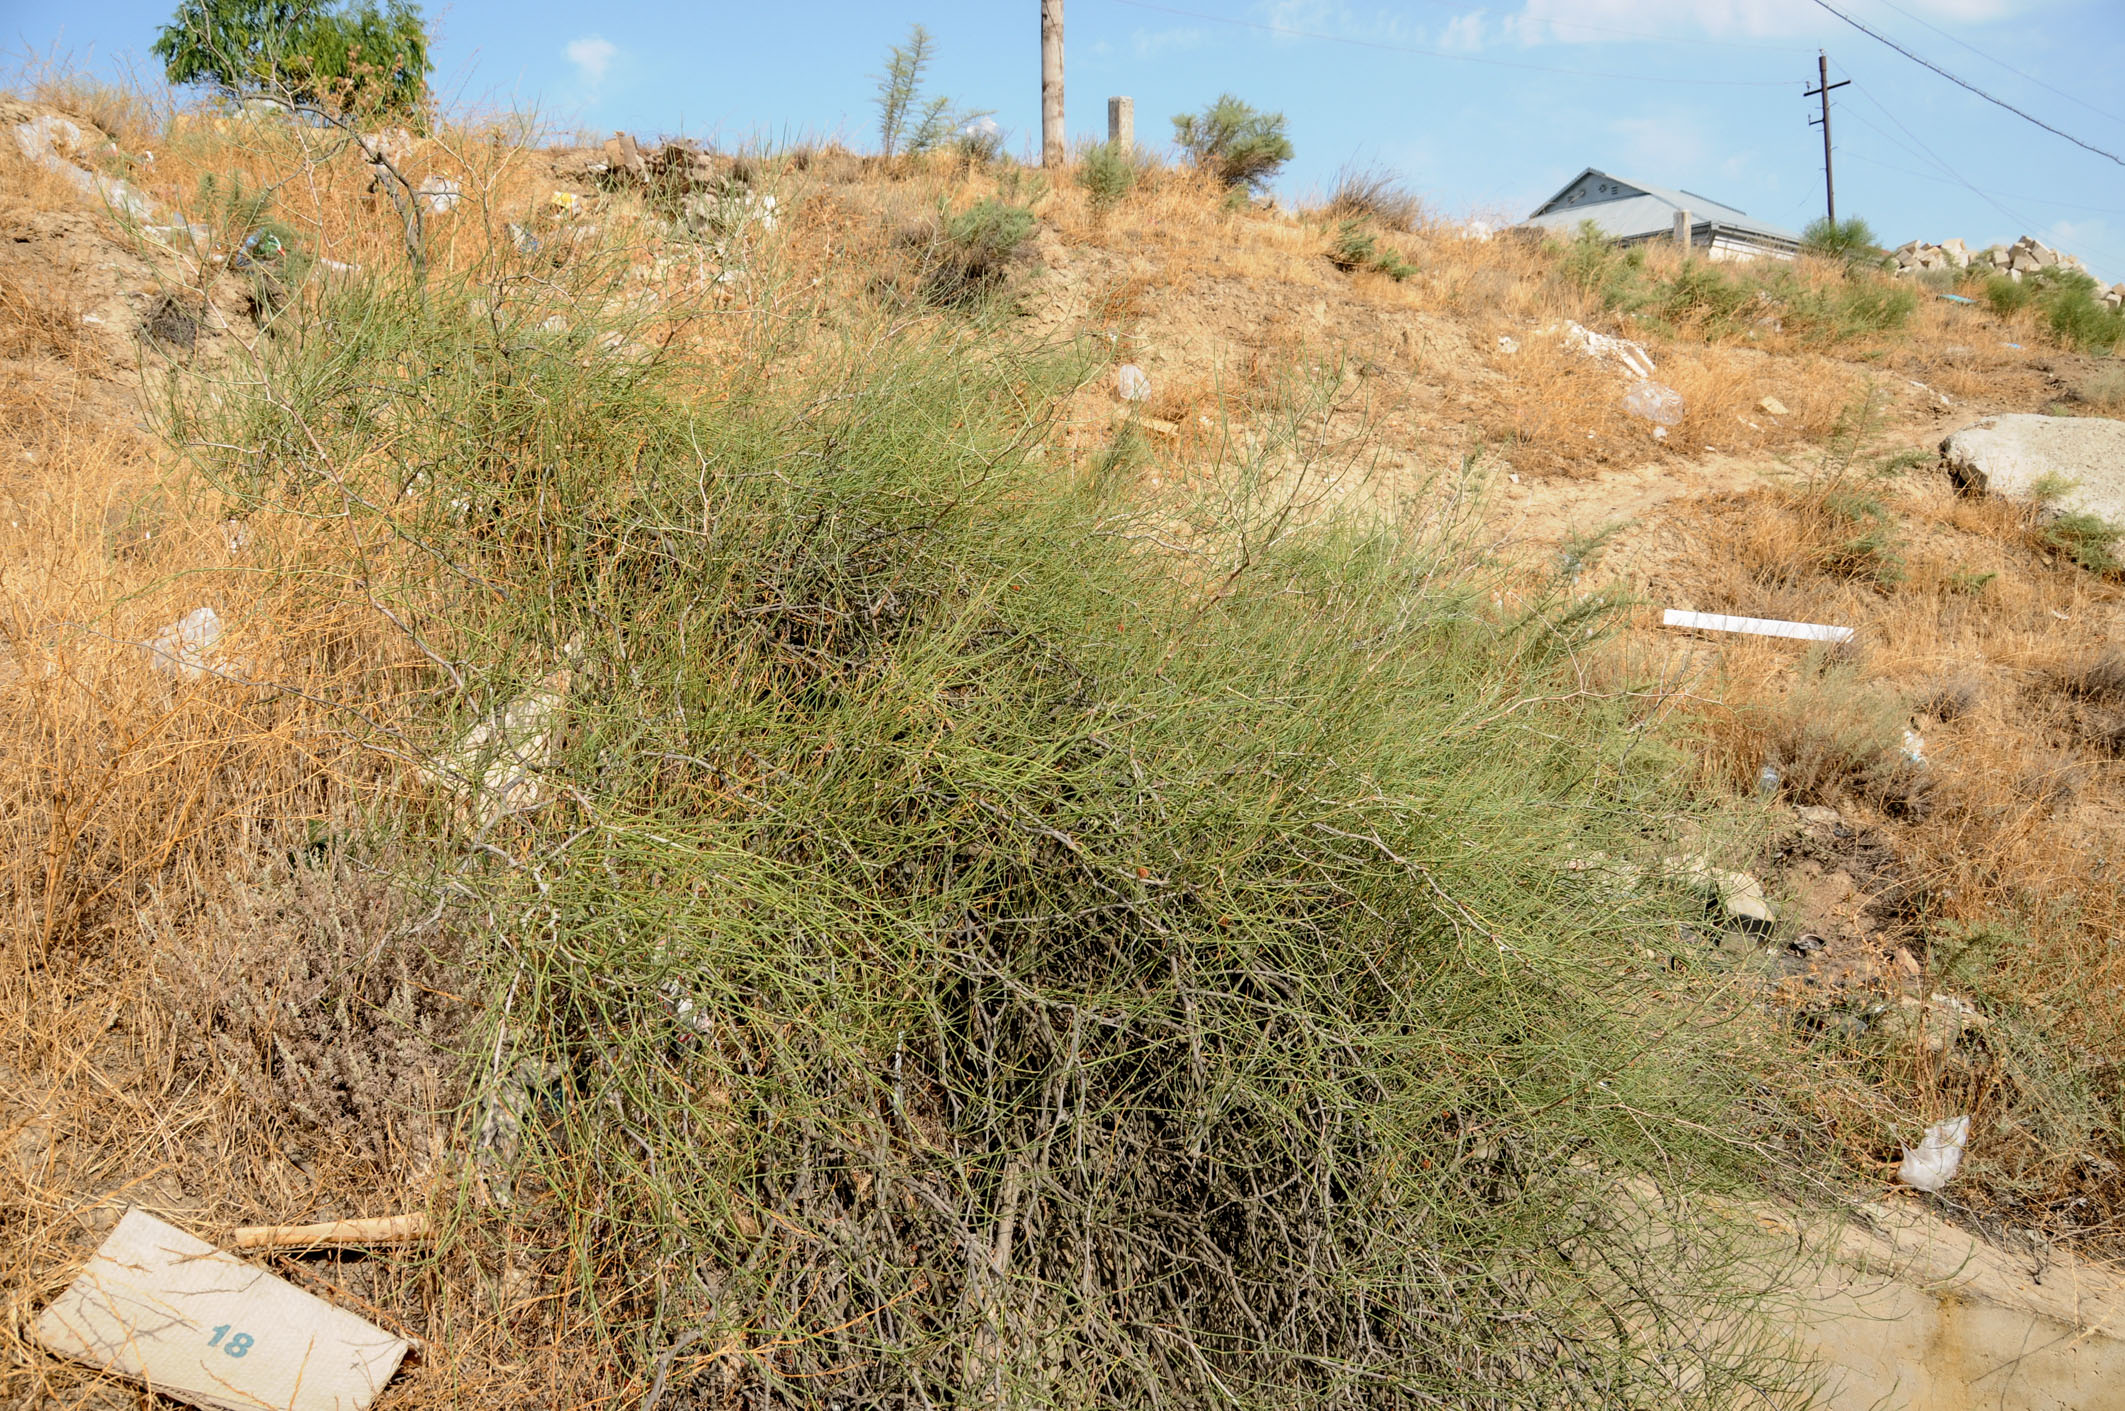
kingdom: Plantae
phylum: Tracheophyta
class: Magnoliopsida
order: Caryophyllales
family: Polygonaceae
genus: Calligonum
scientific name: Calligonum bakuense
